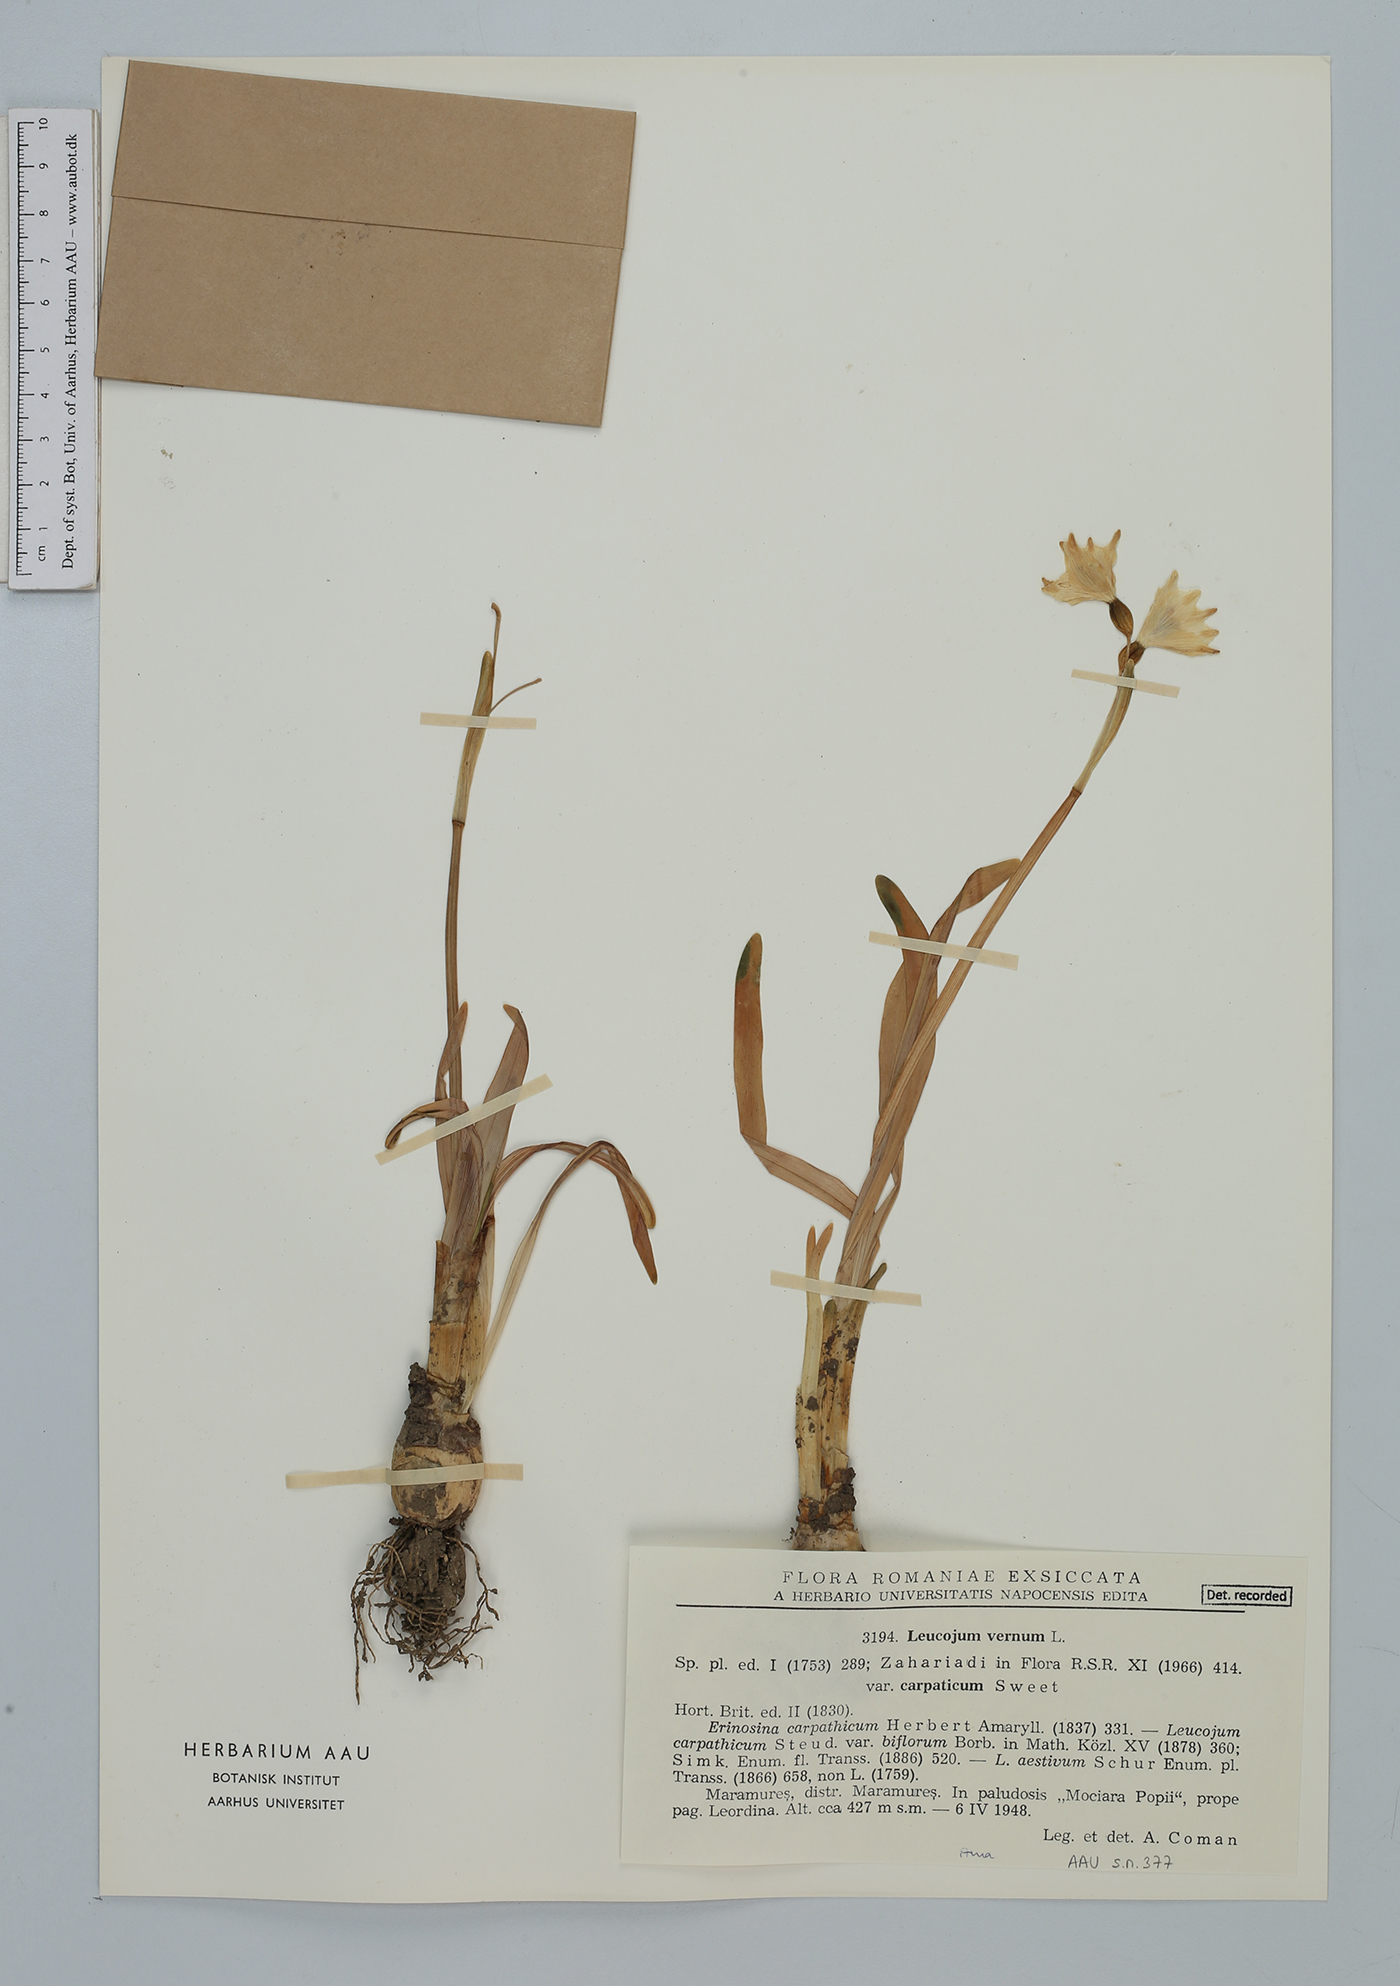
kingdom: Plantae
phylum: Tracheophyta
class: Liliopsida
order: Asparagales
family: Amaryllidaceae
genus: Leucojum
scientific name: Leucojum vernum
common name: Spring snowflake
